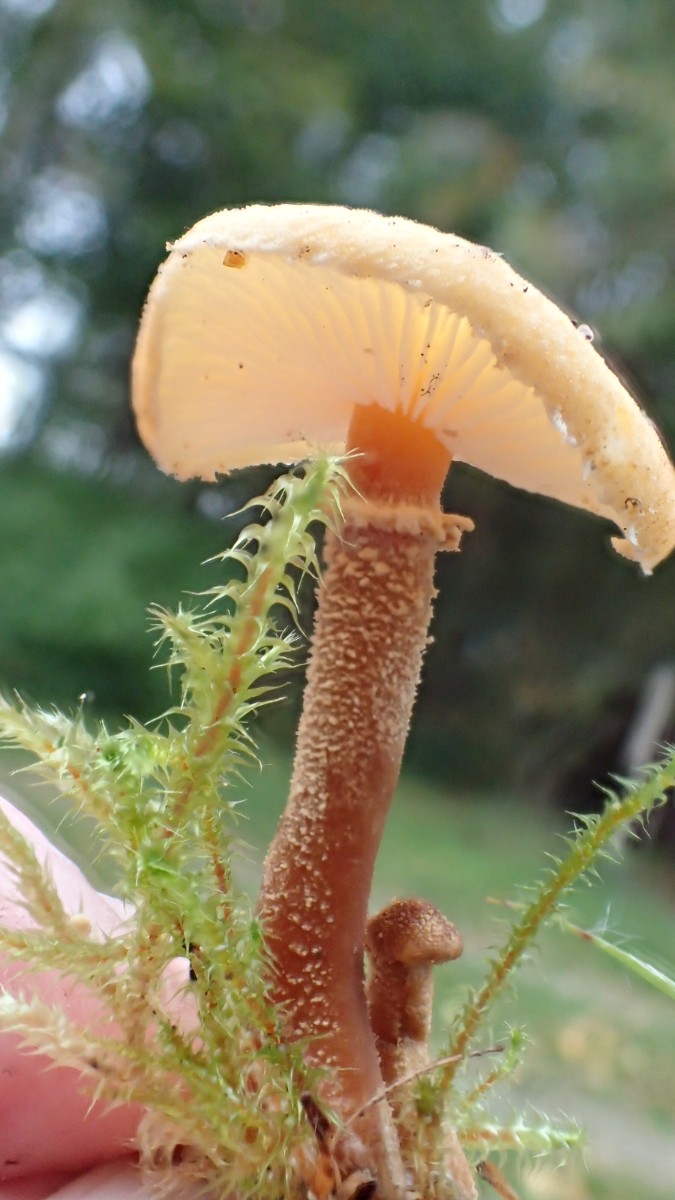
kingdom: Fungi
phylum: Basidiomycota
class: Agaricomycetes
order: Agaricales
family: Tricholomataceae
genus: Cystoderma
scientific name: Cystoderma amianthinum
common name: okkergul grynhat
